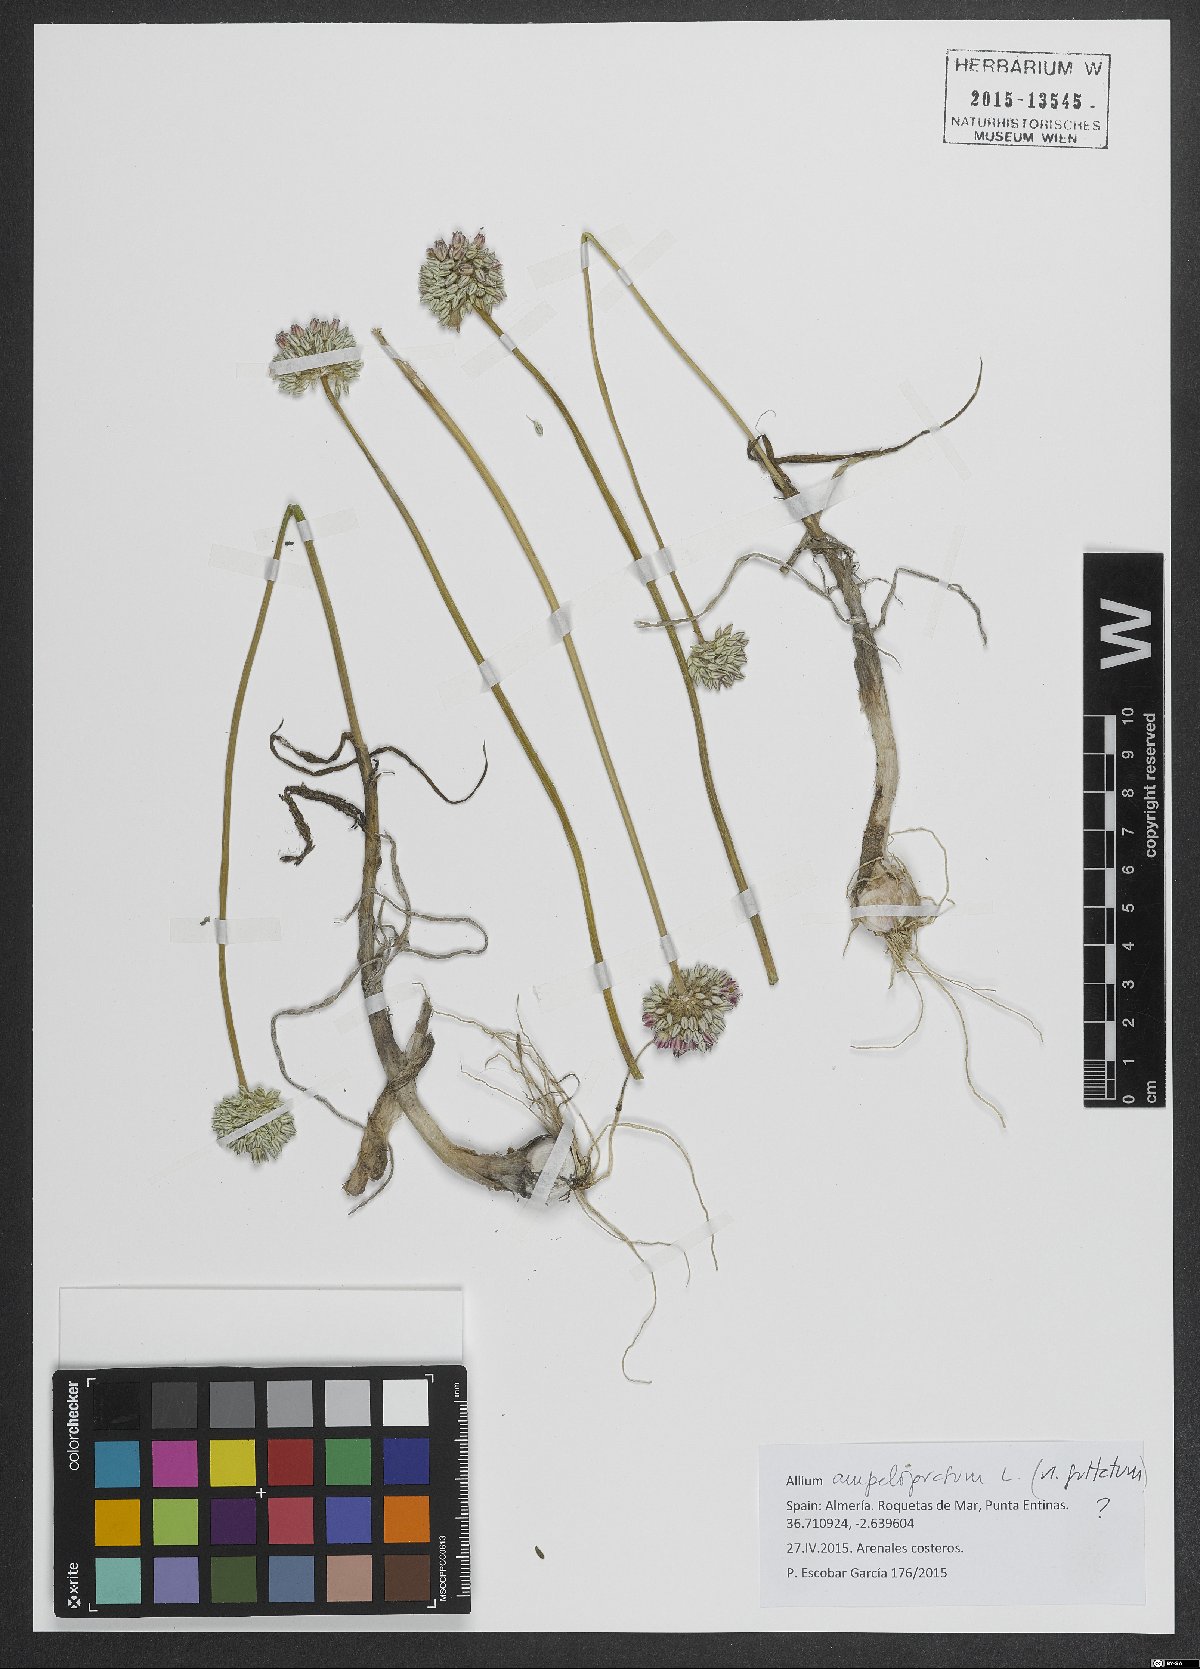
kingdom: Plantae
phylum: Tracheophyta
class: Liliopsida
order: Asparagales
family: Amaryllidaceae
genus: Allium
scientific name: Allium ampeloprasum
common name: Wild leek
